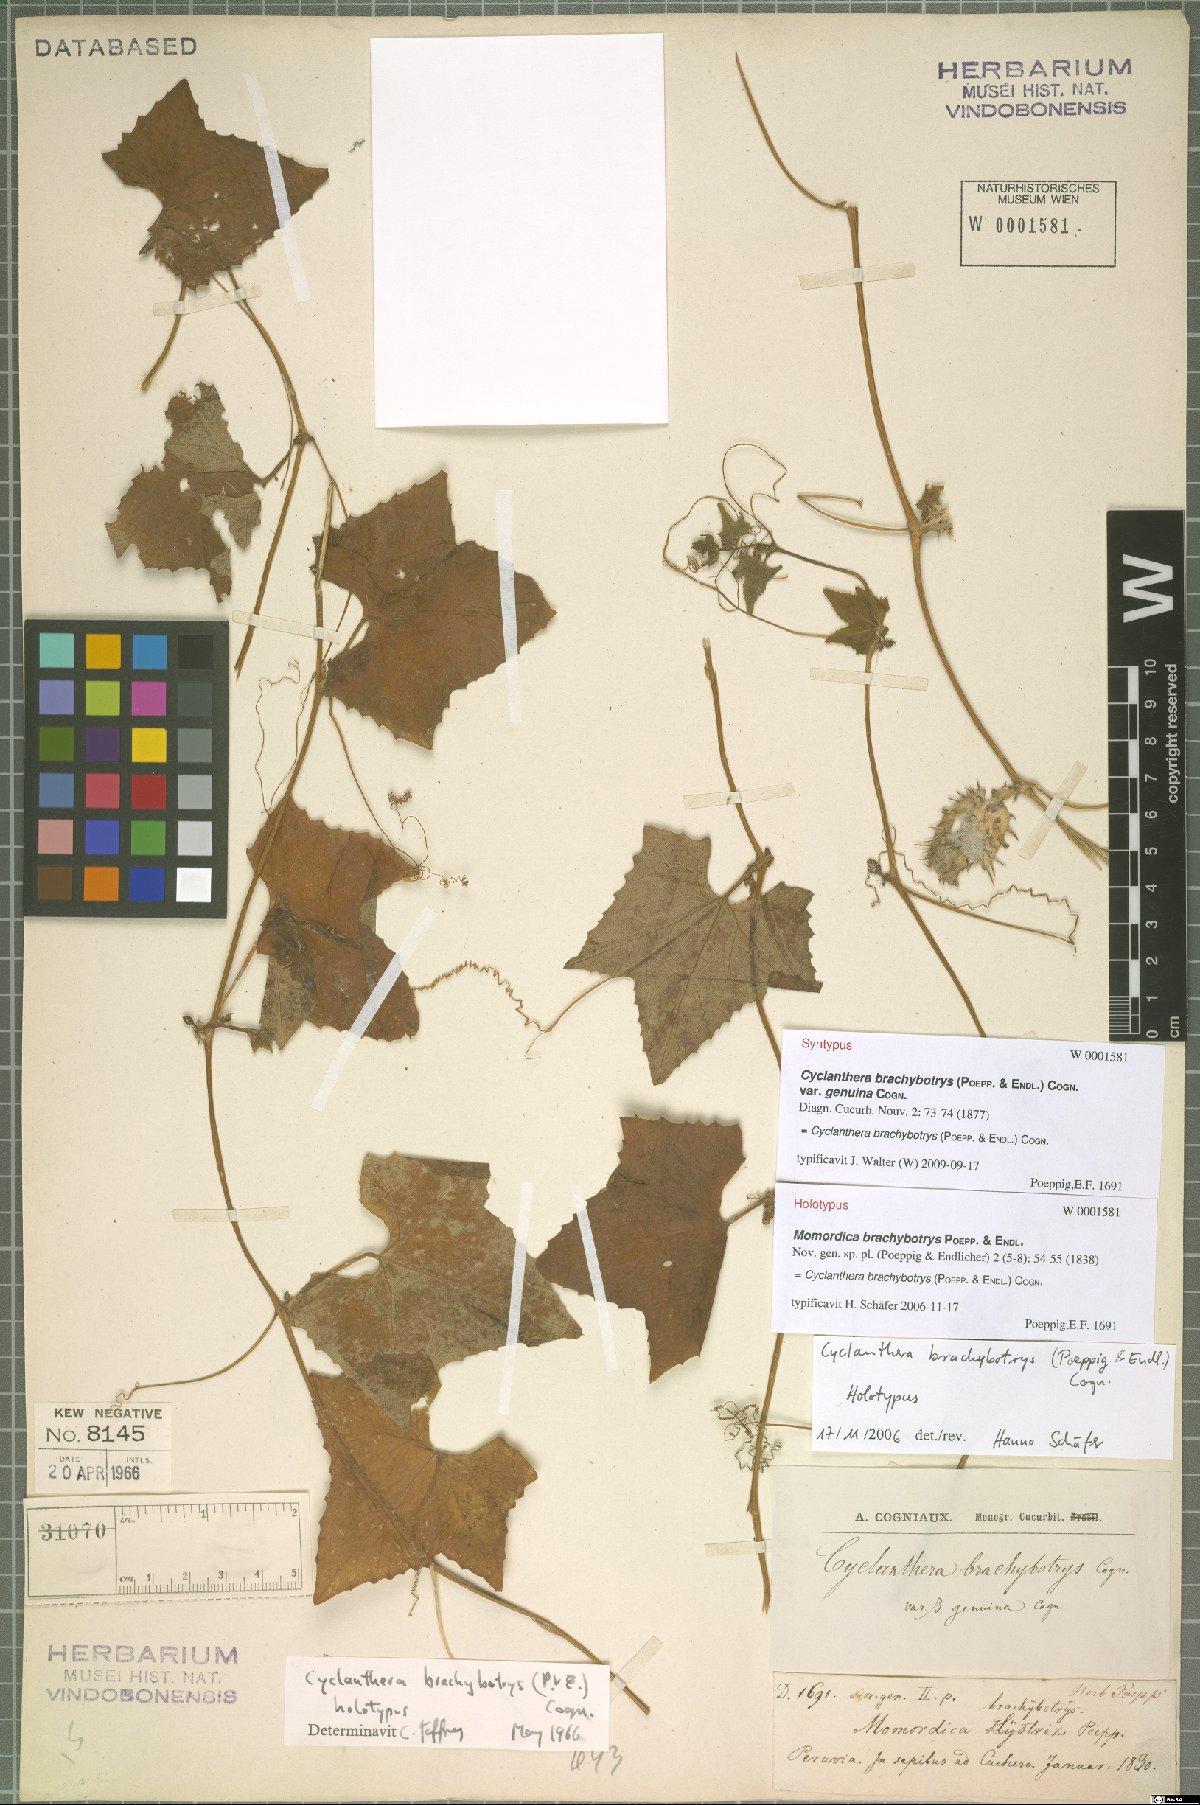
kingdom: Plantae
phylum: Tracheophyta
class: Magnoliopsida
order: Cucurbitales
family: Cucurbitaceae
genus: Cyclanthera
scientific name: Cyclanthera brachybotrys
